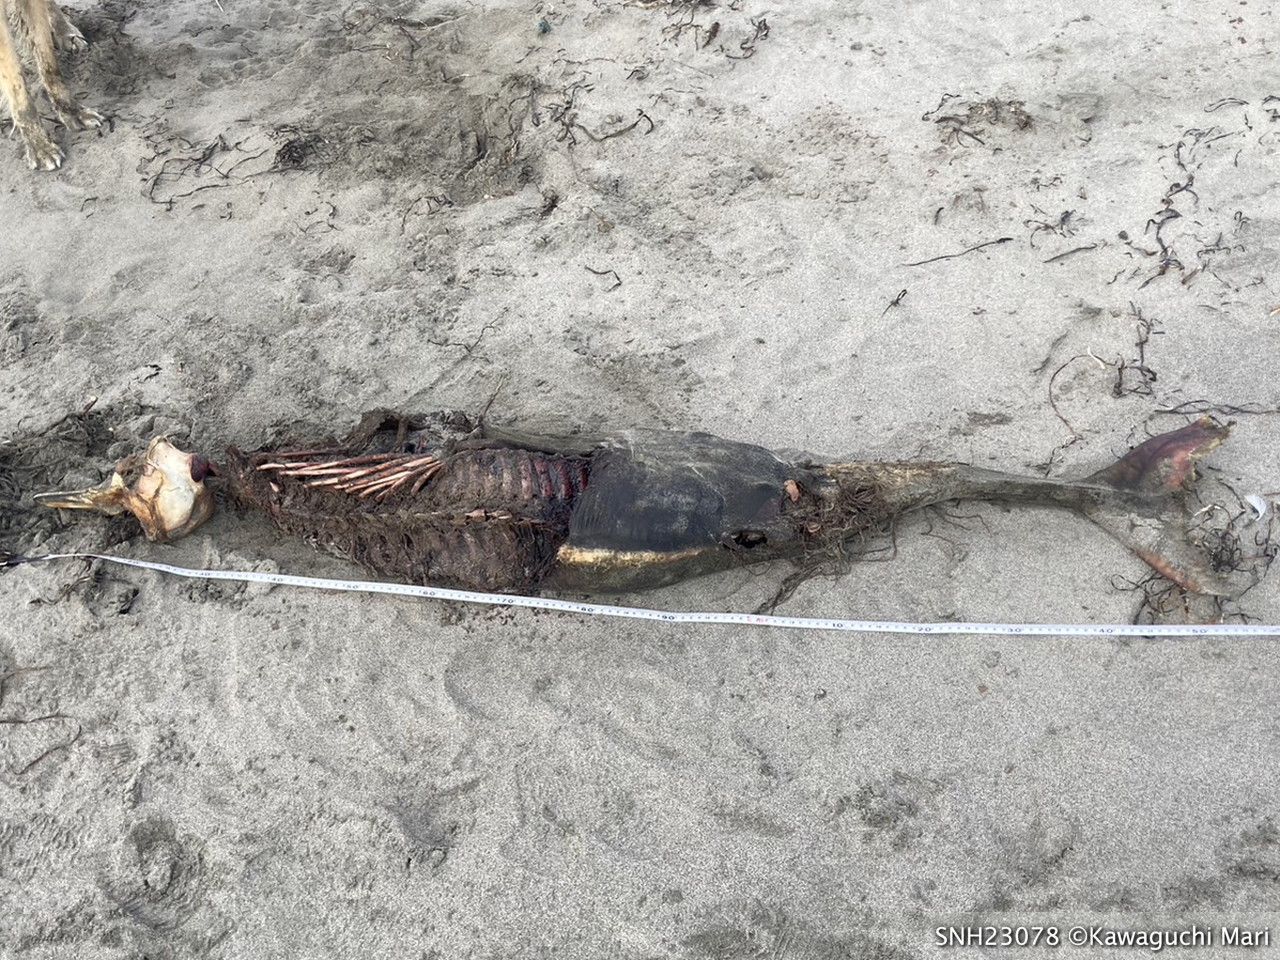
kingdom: Animalia
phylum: Chordata
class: Mammalia
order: Cetacea
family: Phocoenidae
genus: Phocoena
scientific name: Phocoena phocoena
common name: Harbour porpoise
